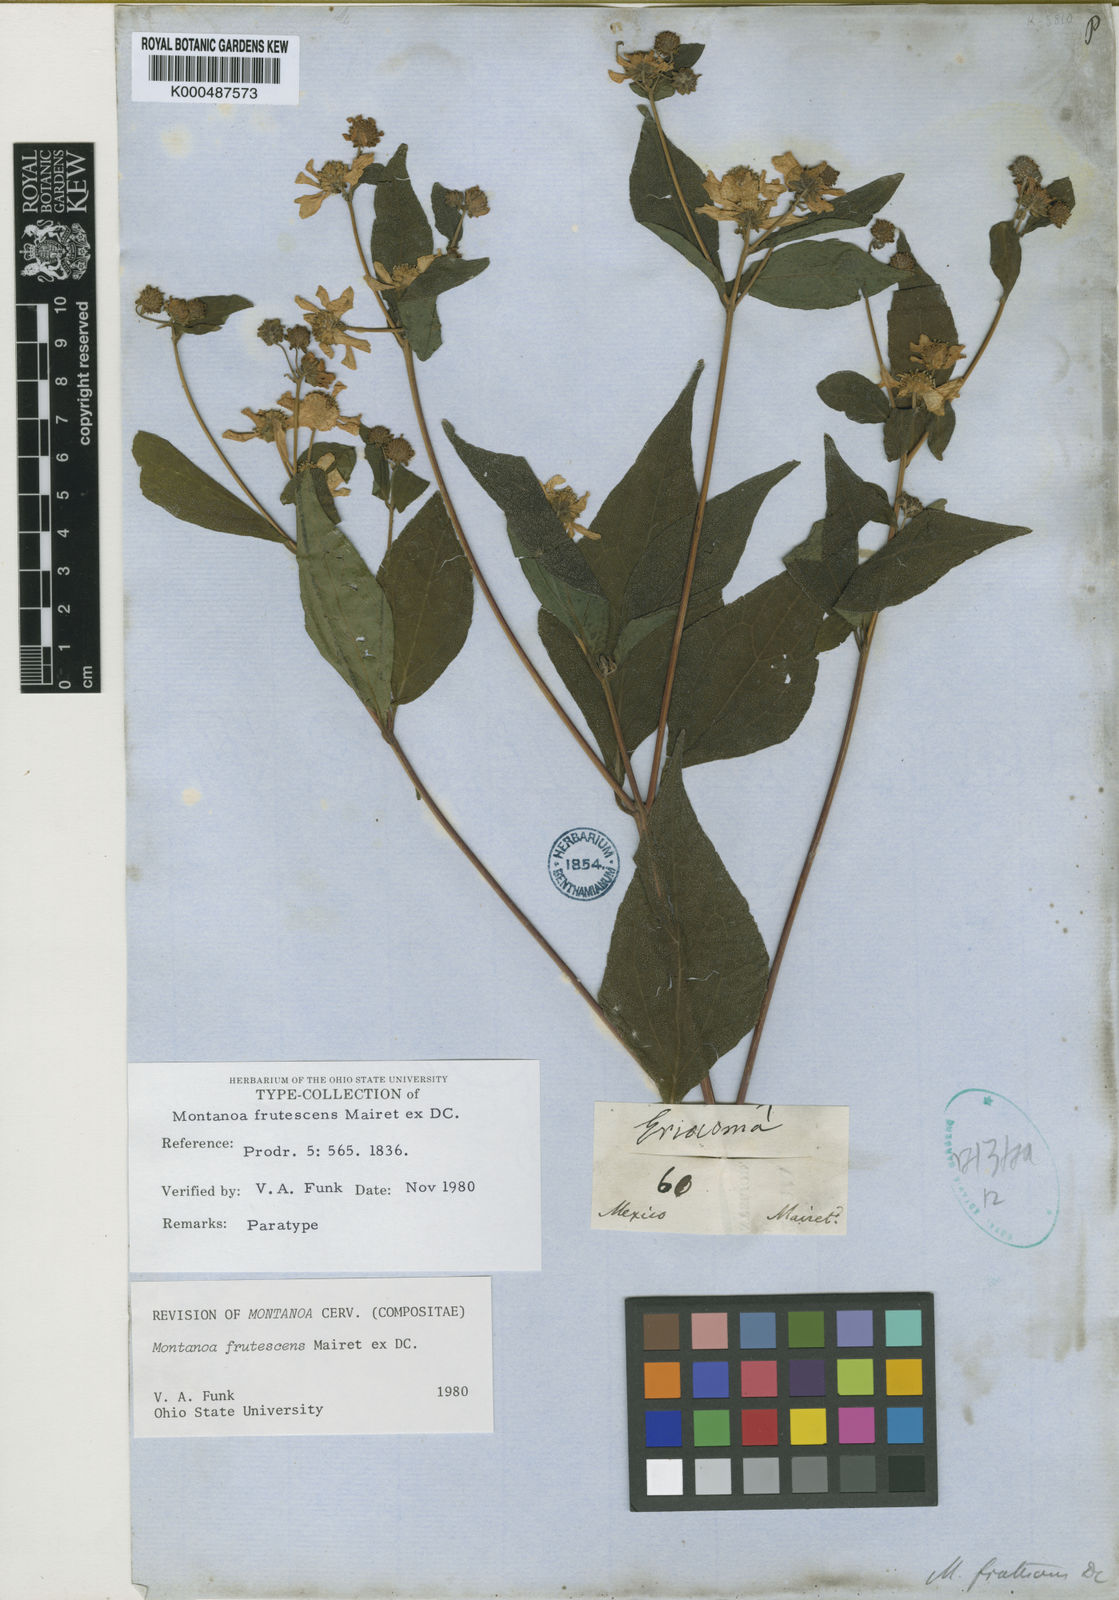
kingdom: Plantae
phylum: Tracheophyta
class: Magnoliopsida
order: Asterales
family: Asteraceae
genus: Montanoa
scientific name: Montanoa
